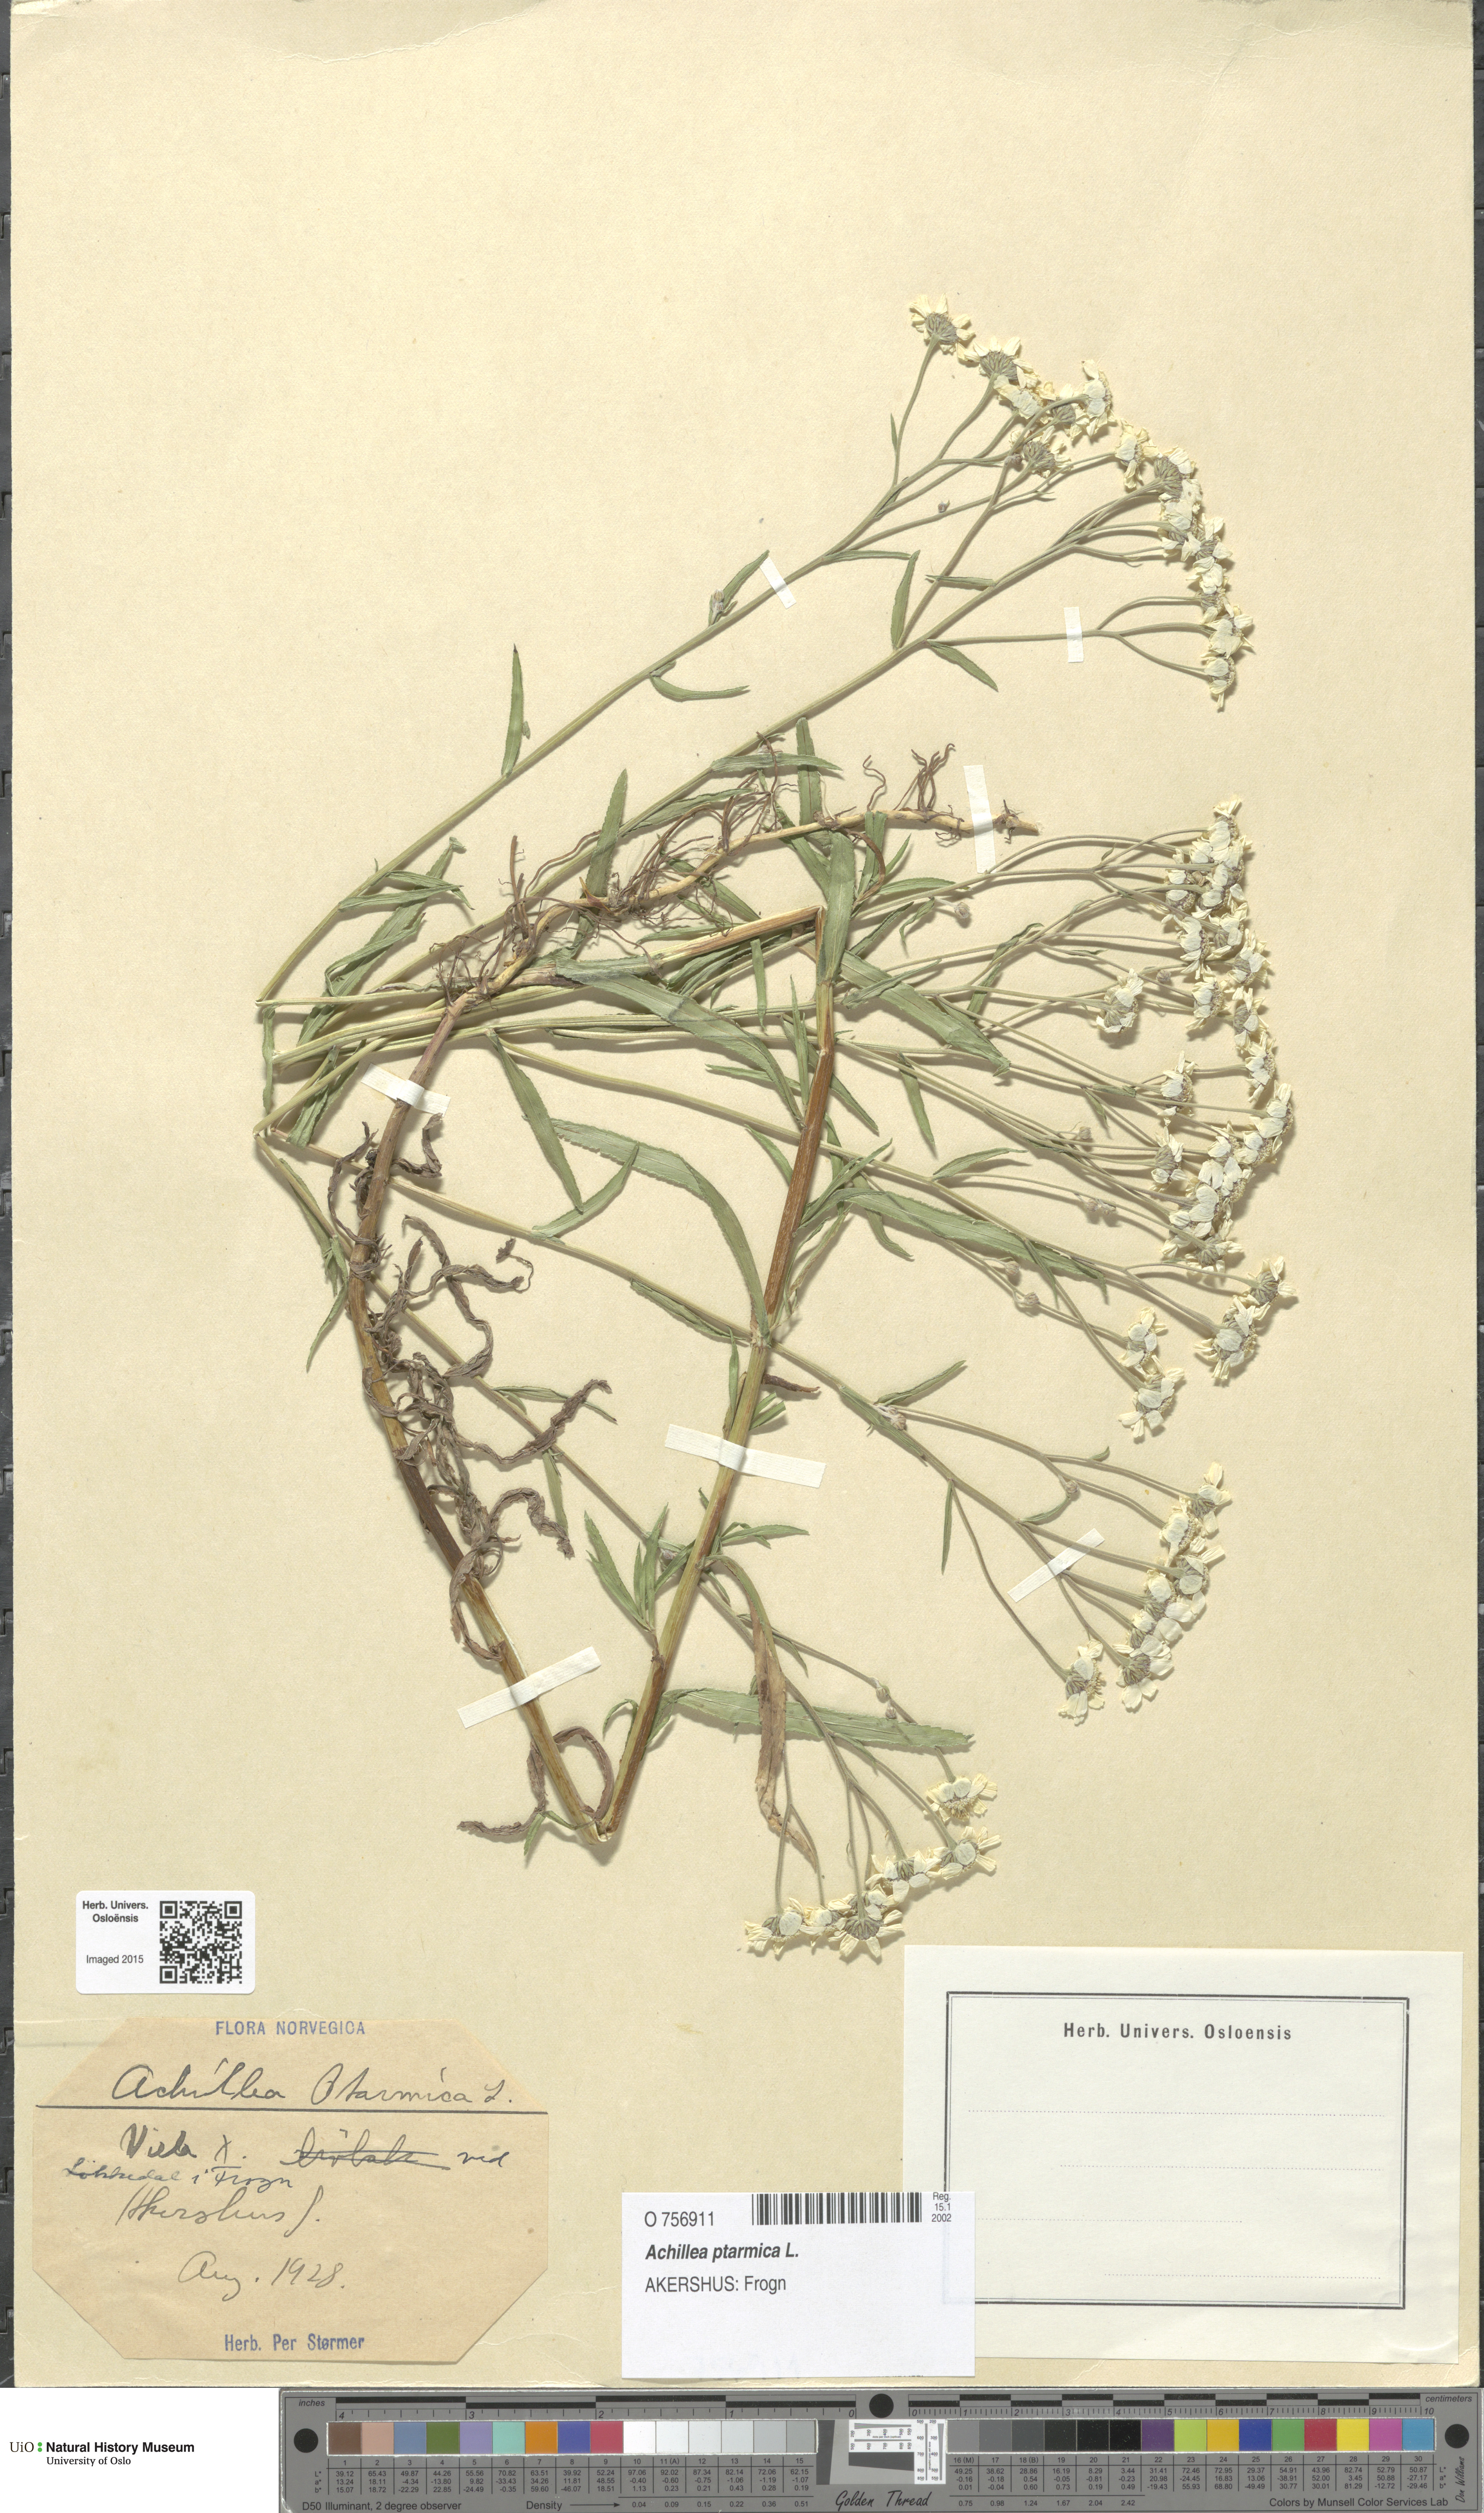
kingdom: Plantae
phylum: Tracheophyta
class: Magnoliopsida
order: Asterales
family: Asteraceae
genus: Achillea
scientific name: Achillea ptarmica
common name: Sneezeweed
